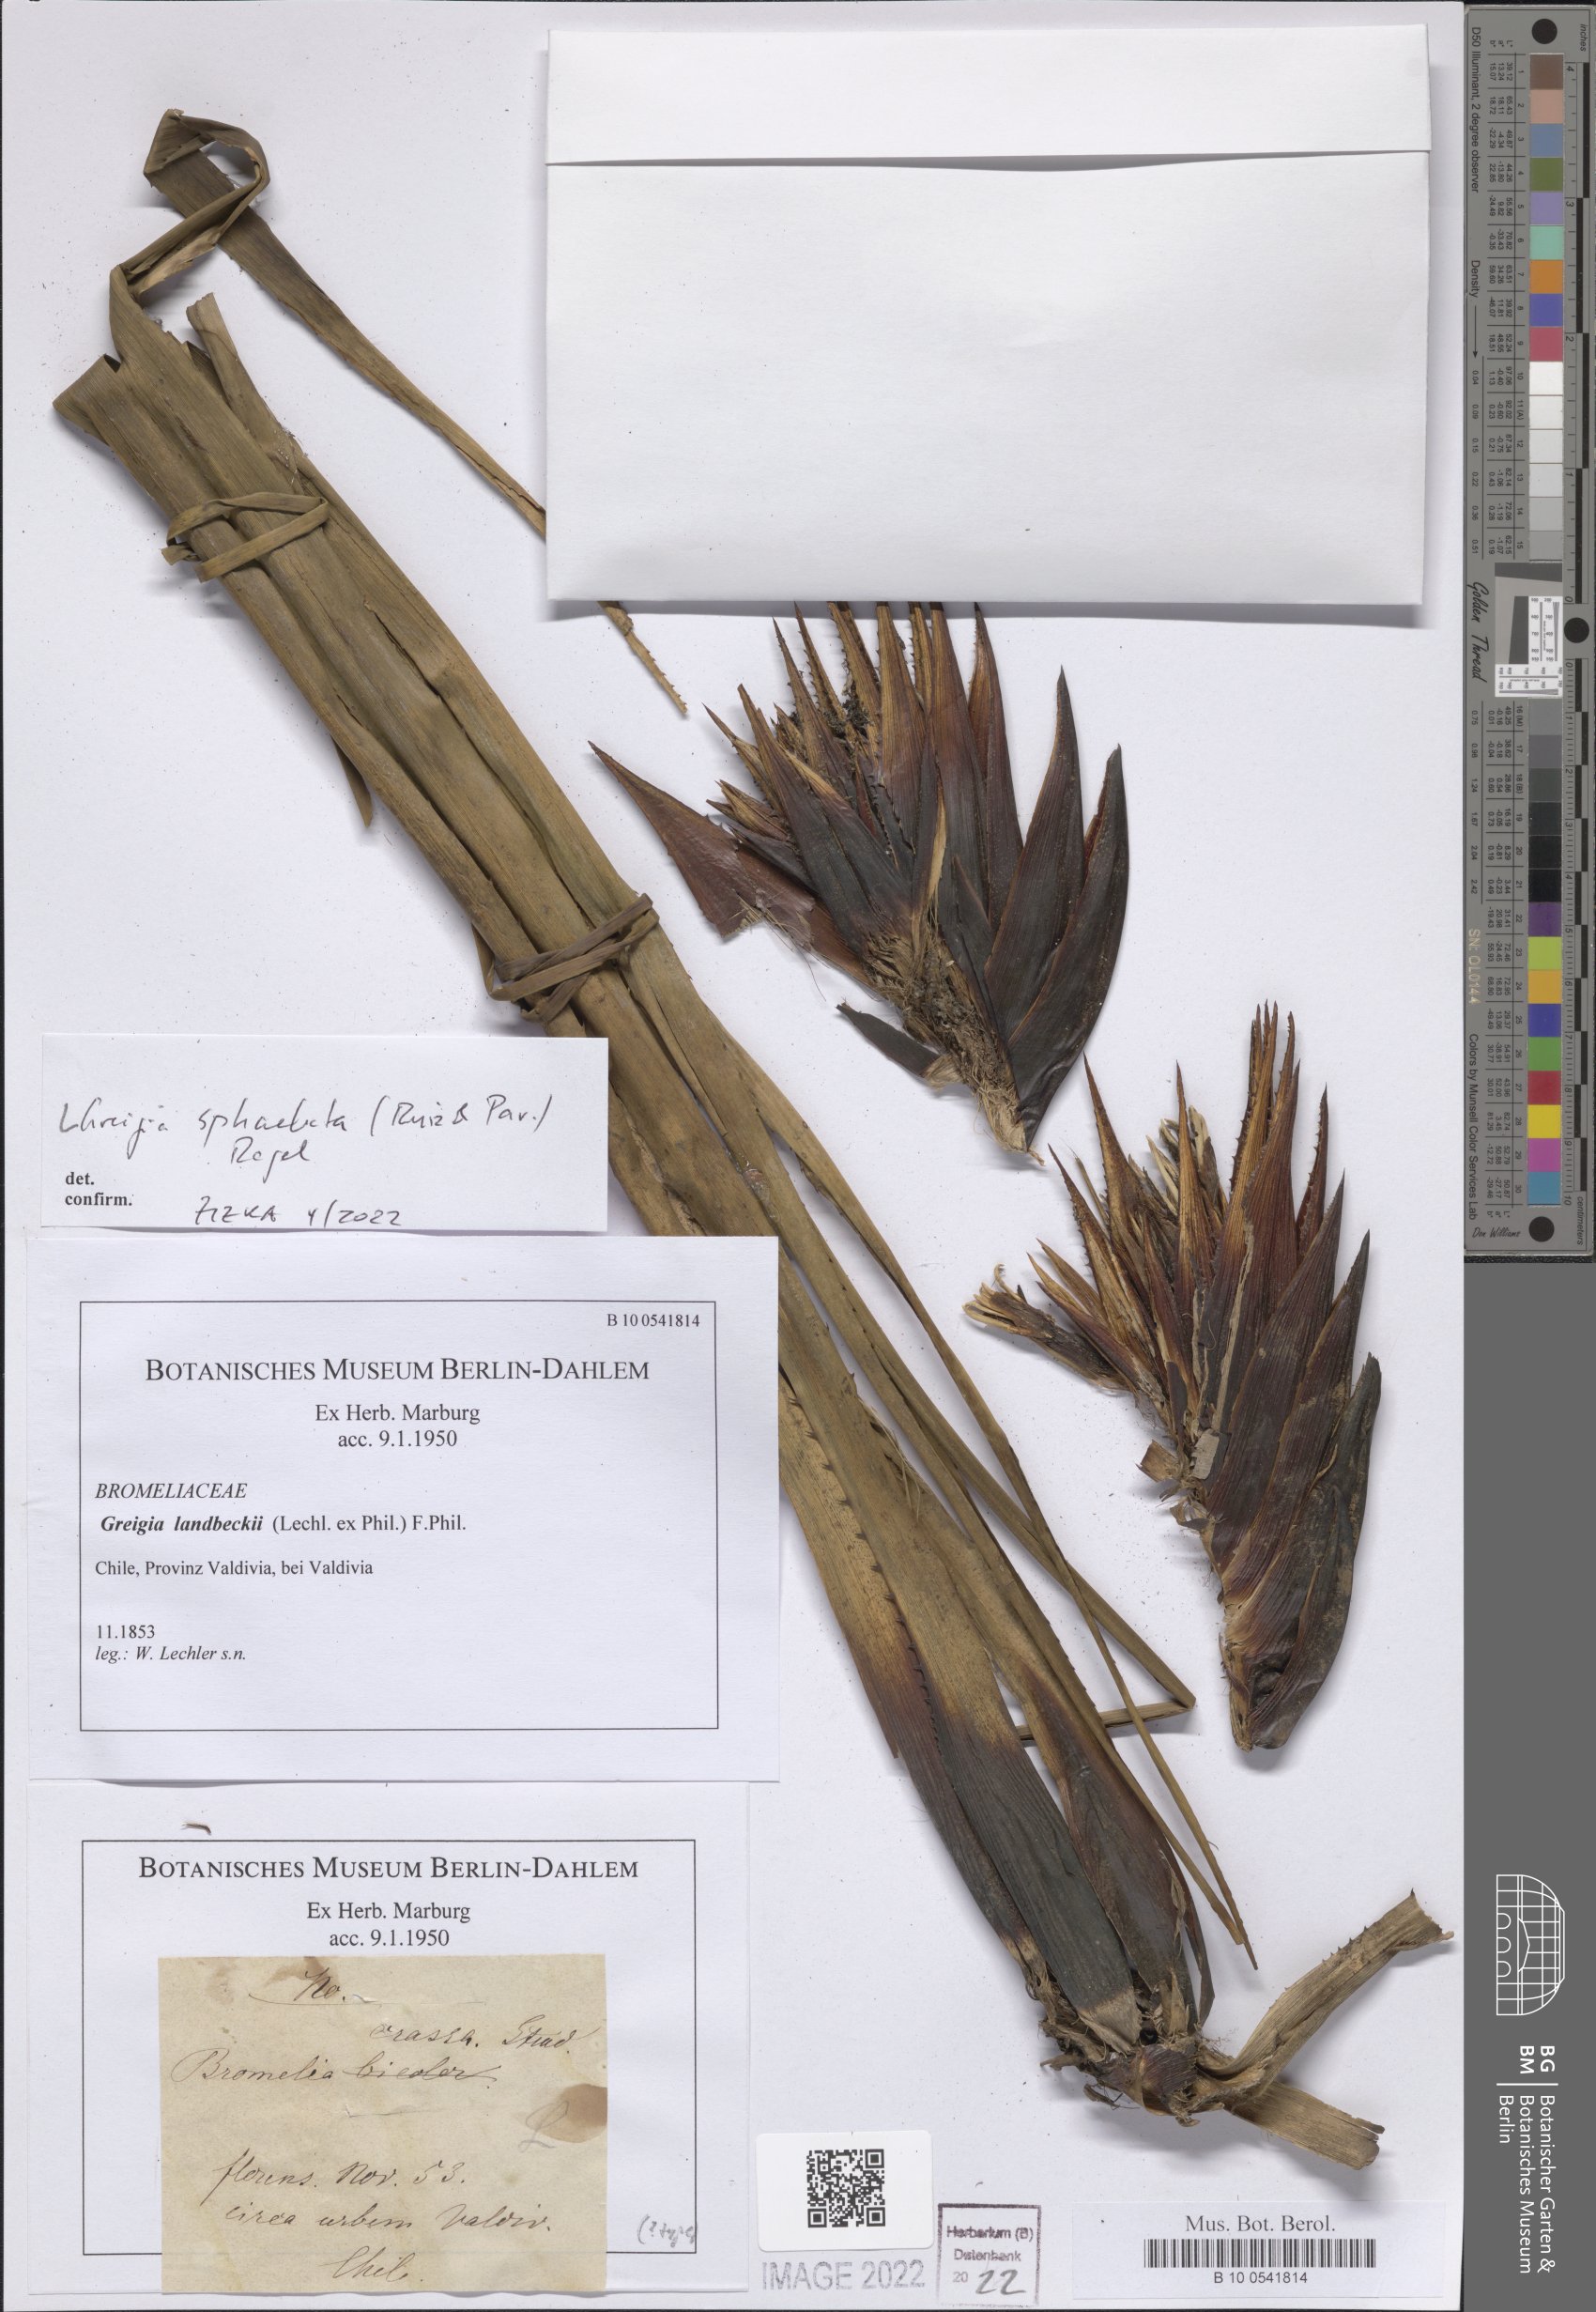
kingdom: Plantae
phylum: Tracheophyta
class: Liliopsida
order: Poales
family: Bromeliaceae
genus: Greigia
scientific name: Greigia sphacelata
